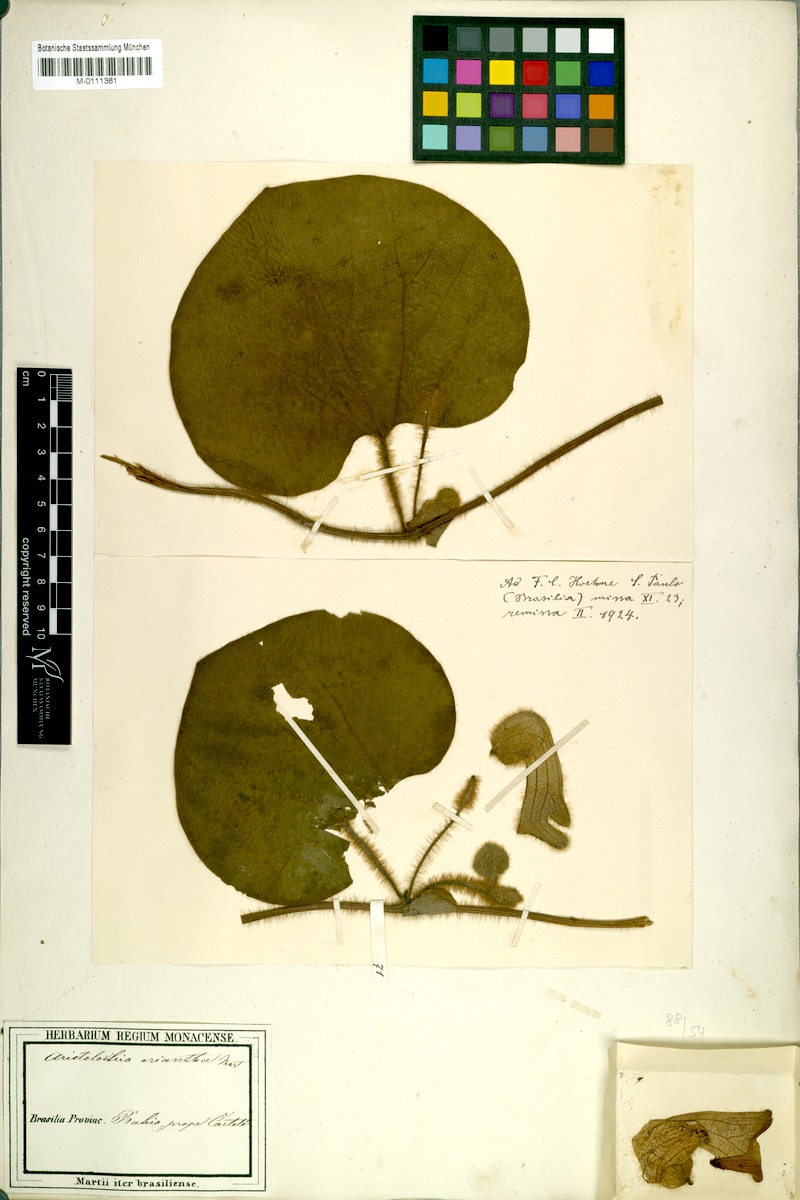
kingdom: Plantae
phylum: Tracheophyta
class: Magnoliopsida
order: Piperales
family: Aristolochiaceae
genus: Aristolochia
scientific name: Aristolochia eriantha
